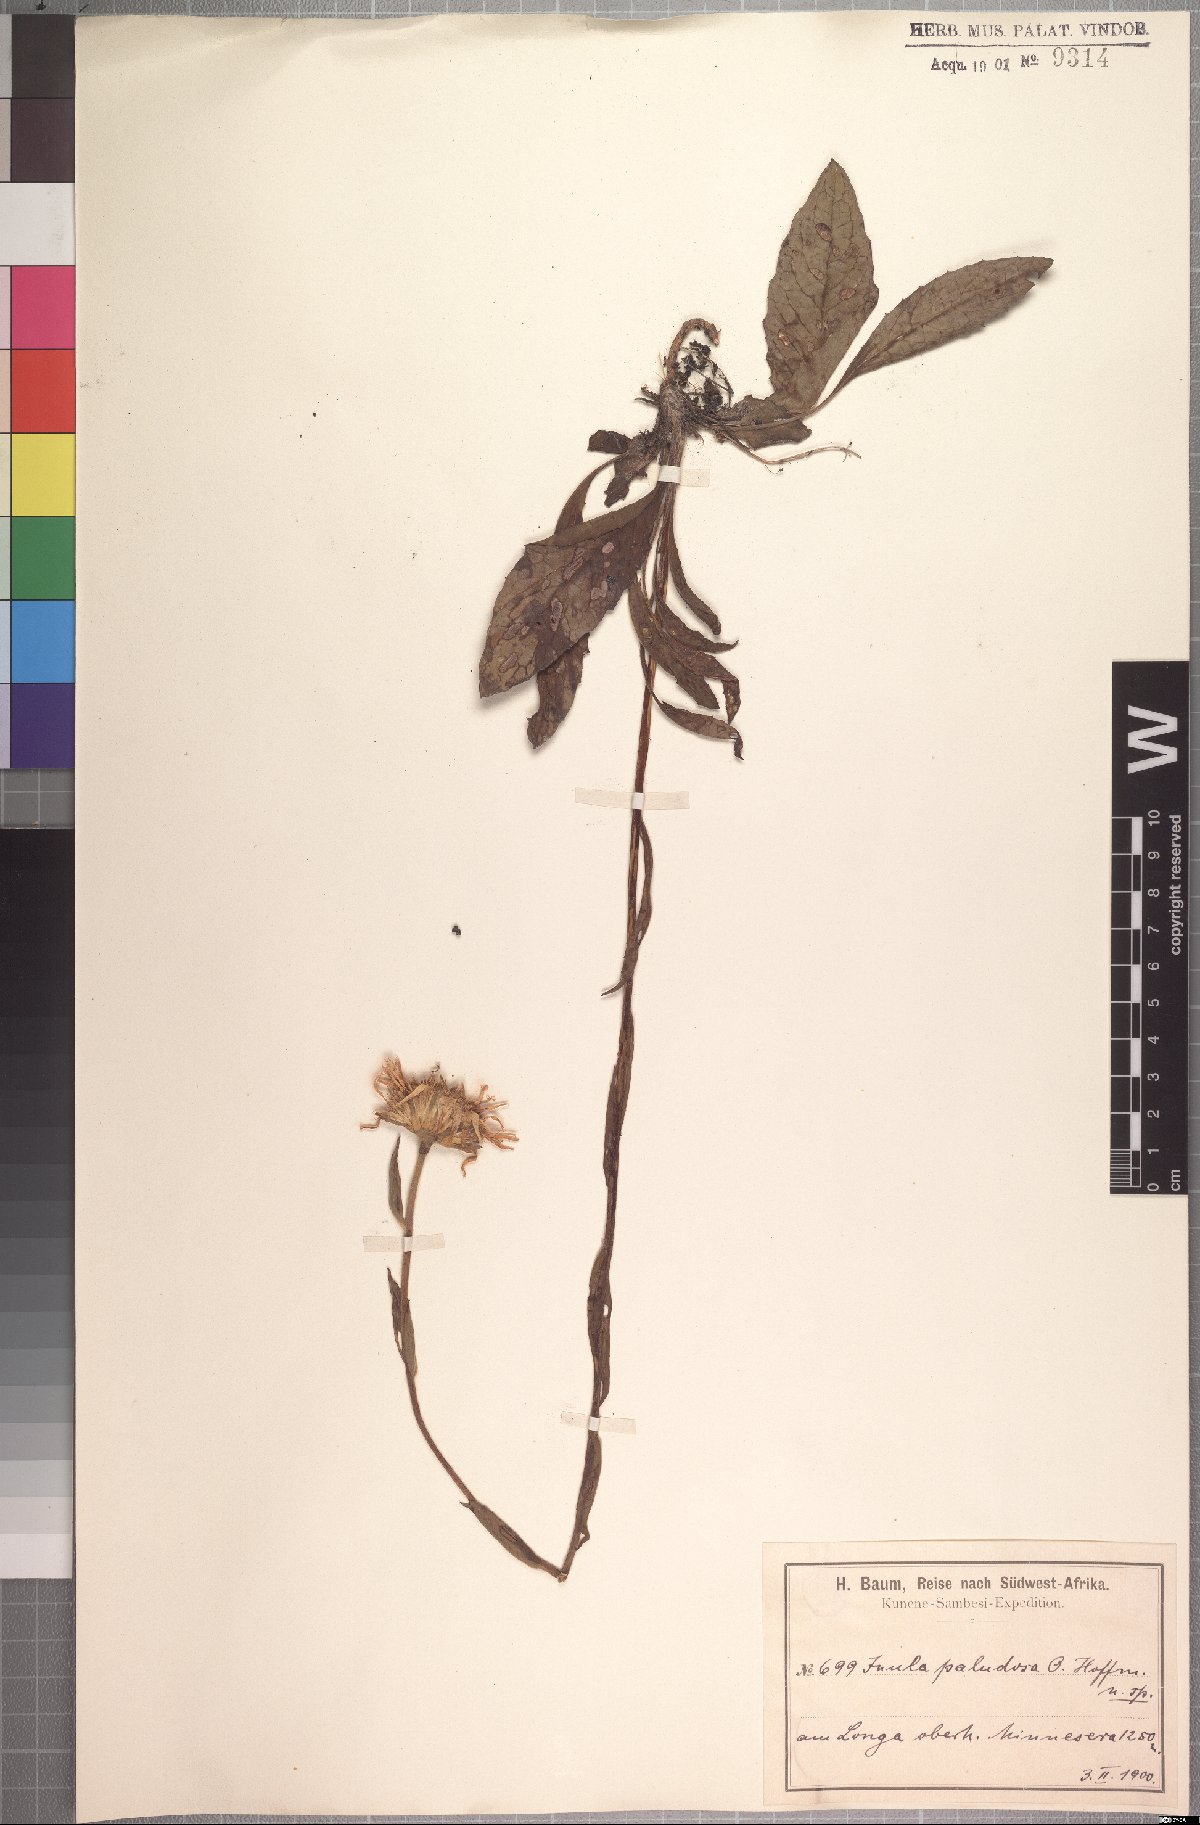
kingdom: Plantae
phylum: Tracheophyta
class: Magnoliopsida
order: Asterales
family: Asteraceae
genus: Inula
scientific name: Inula paludosa
